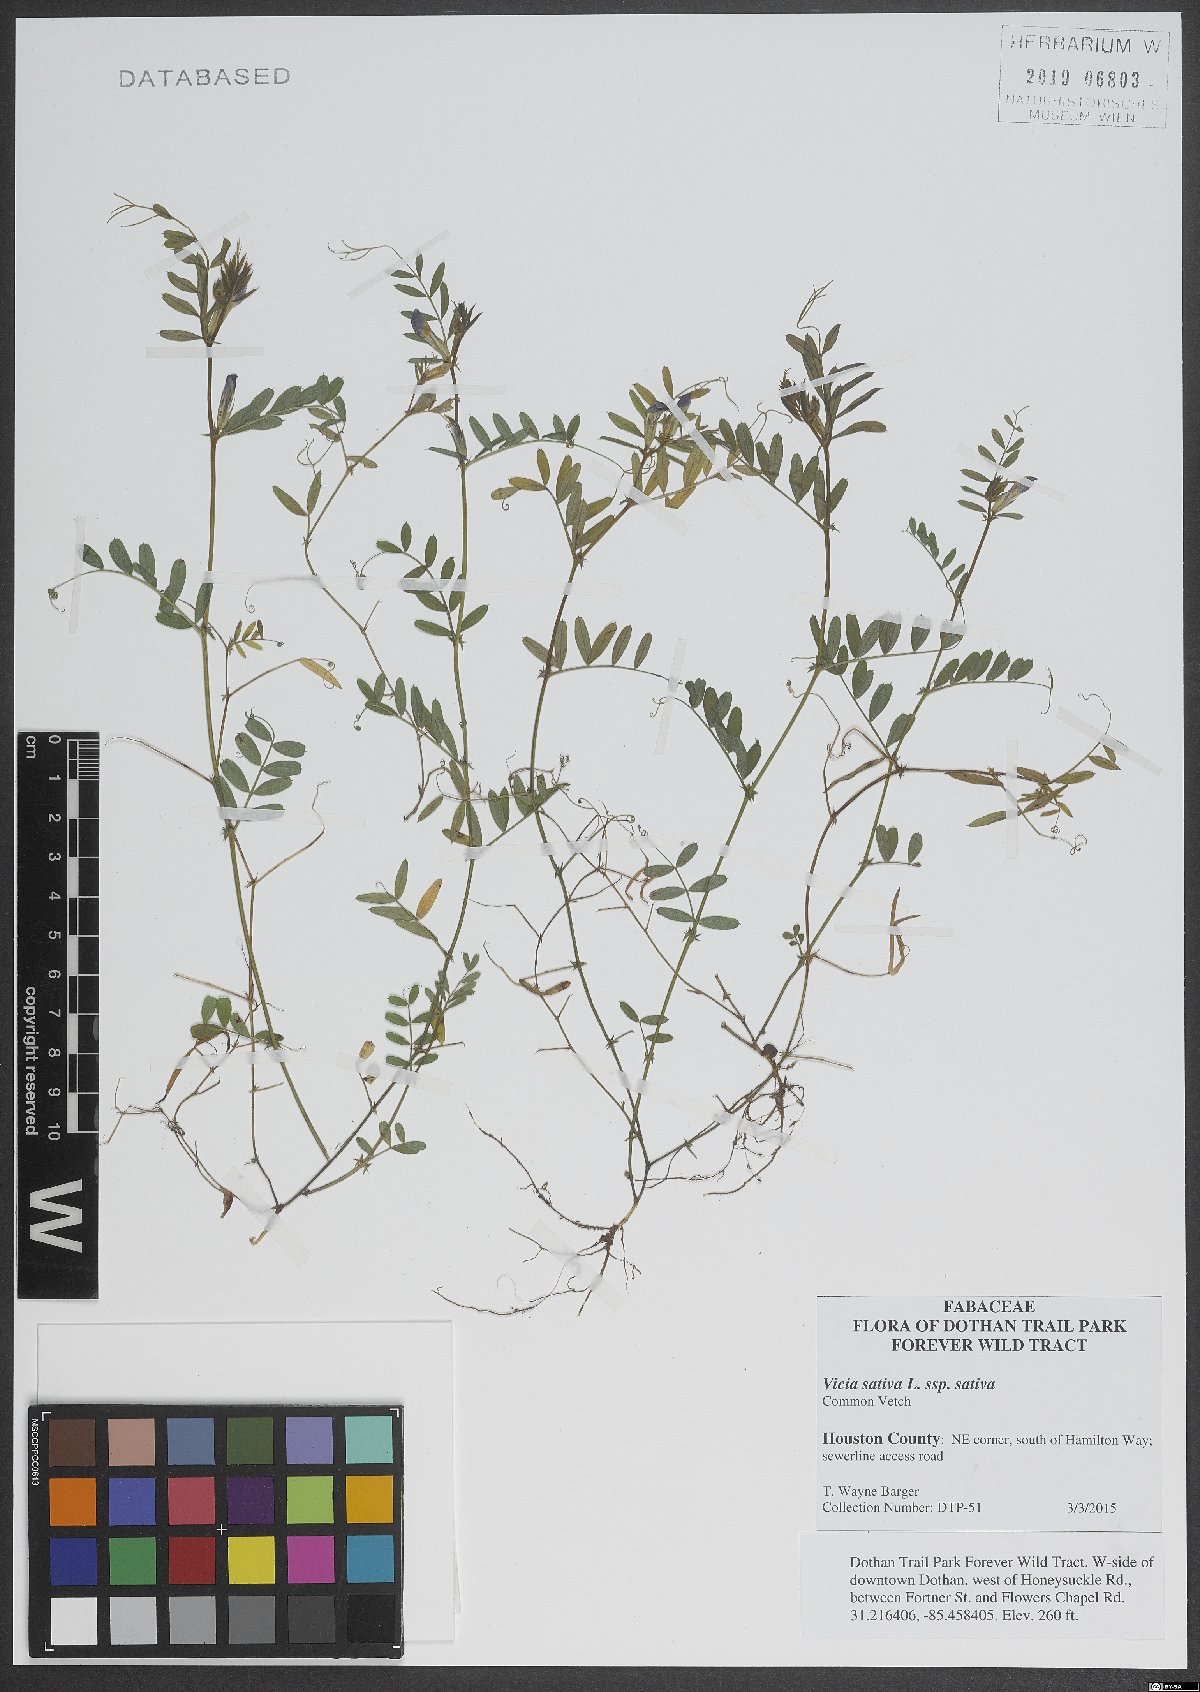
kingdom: Plantae
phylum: Tracheophyta
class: Magnoliopsida
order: Fabales
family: Fabaceae
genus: Vicia
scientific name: Vicia sativa
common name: Garden vetch
